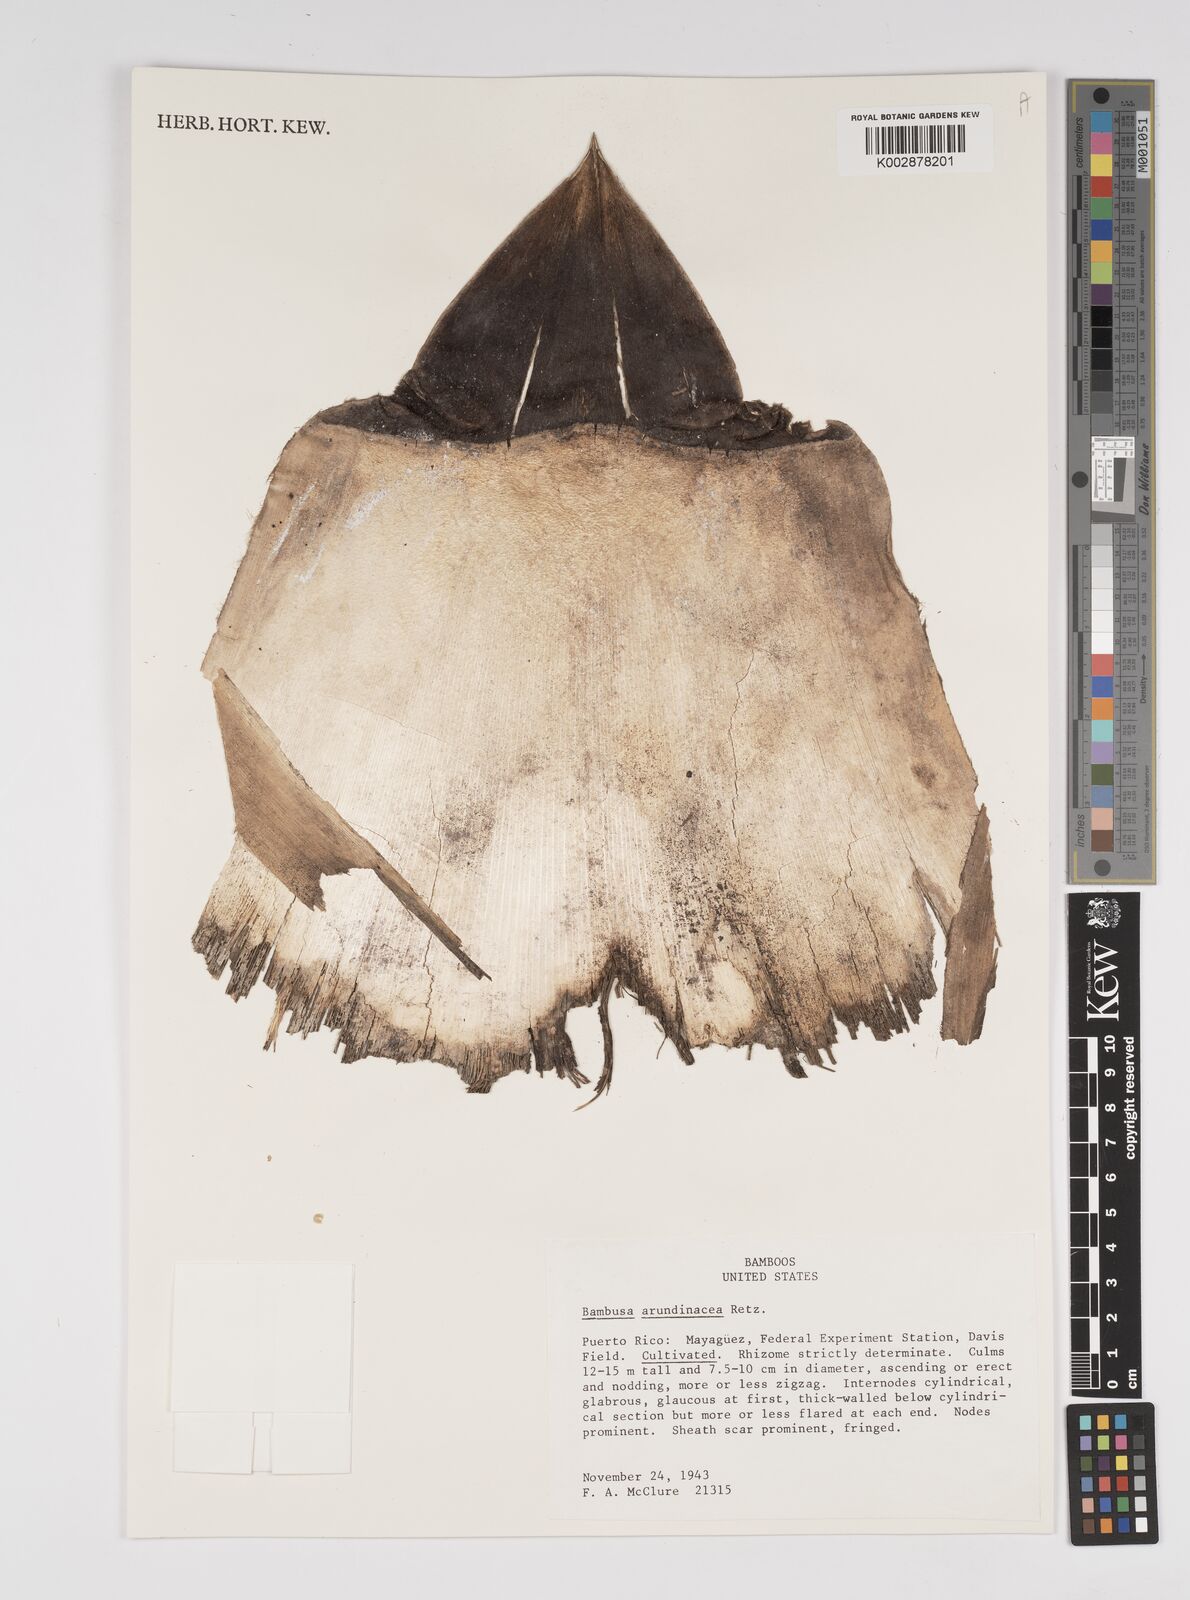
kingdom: Plantae
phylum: Tracheophyta
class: Liliopsida
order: Poales
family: Poaceae
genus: Bambusa
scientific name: Bambusa bambos
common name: Indian thorny bamboo
